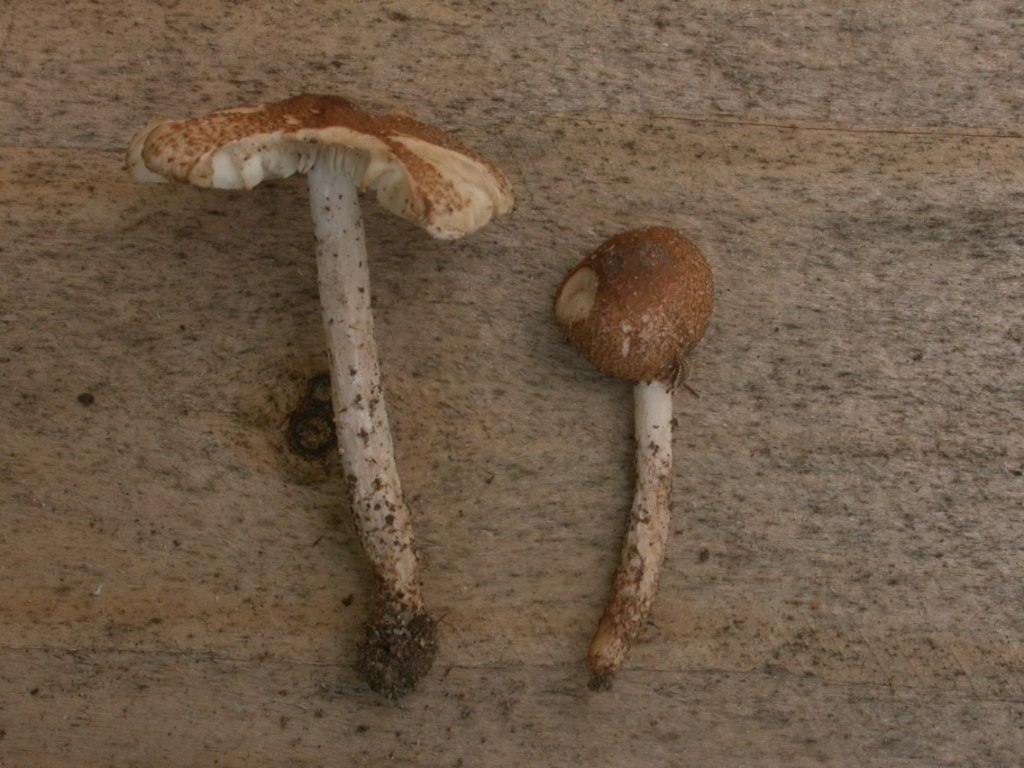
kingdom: Fungi
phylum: Basidiomycota
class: Agaricomycetes
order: Agaricales
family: Agaricaceae
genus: Lepiota
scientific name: Lepiota speciosa
